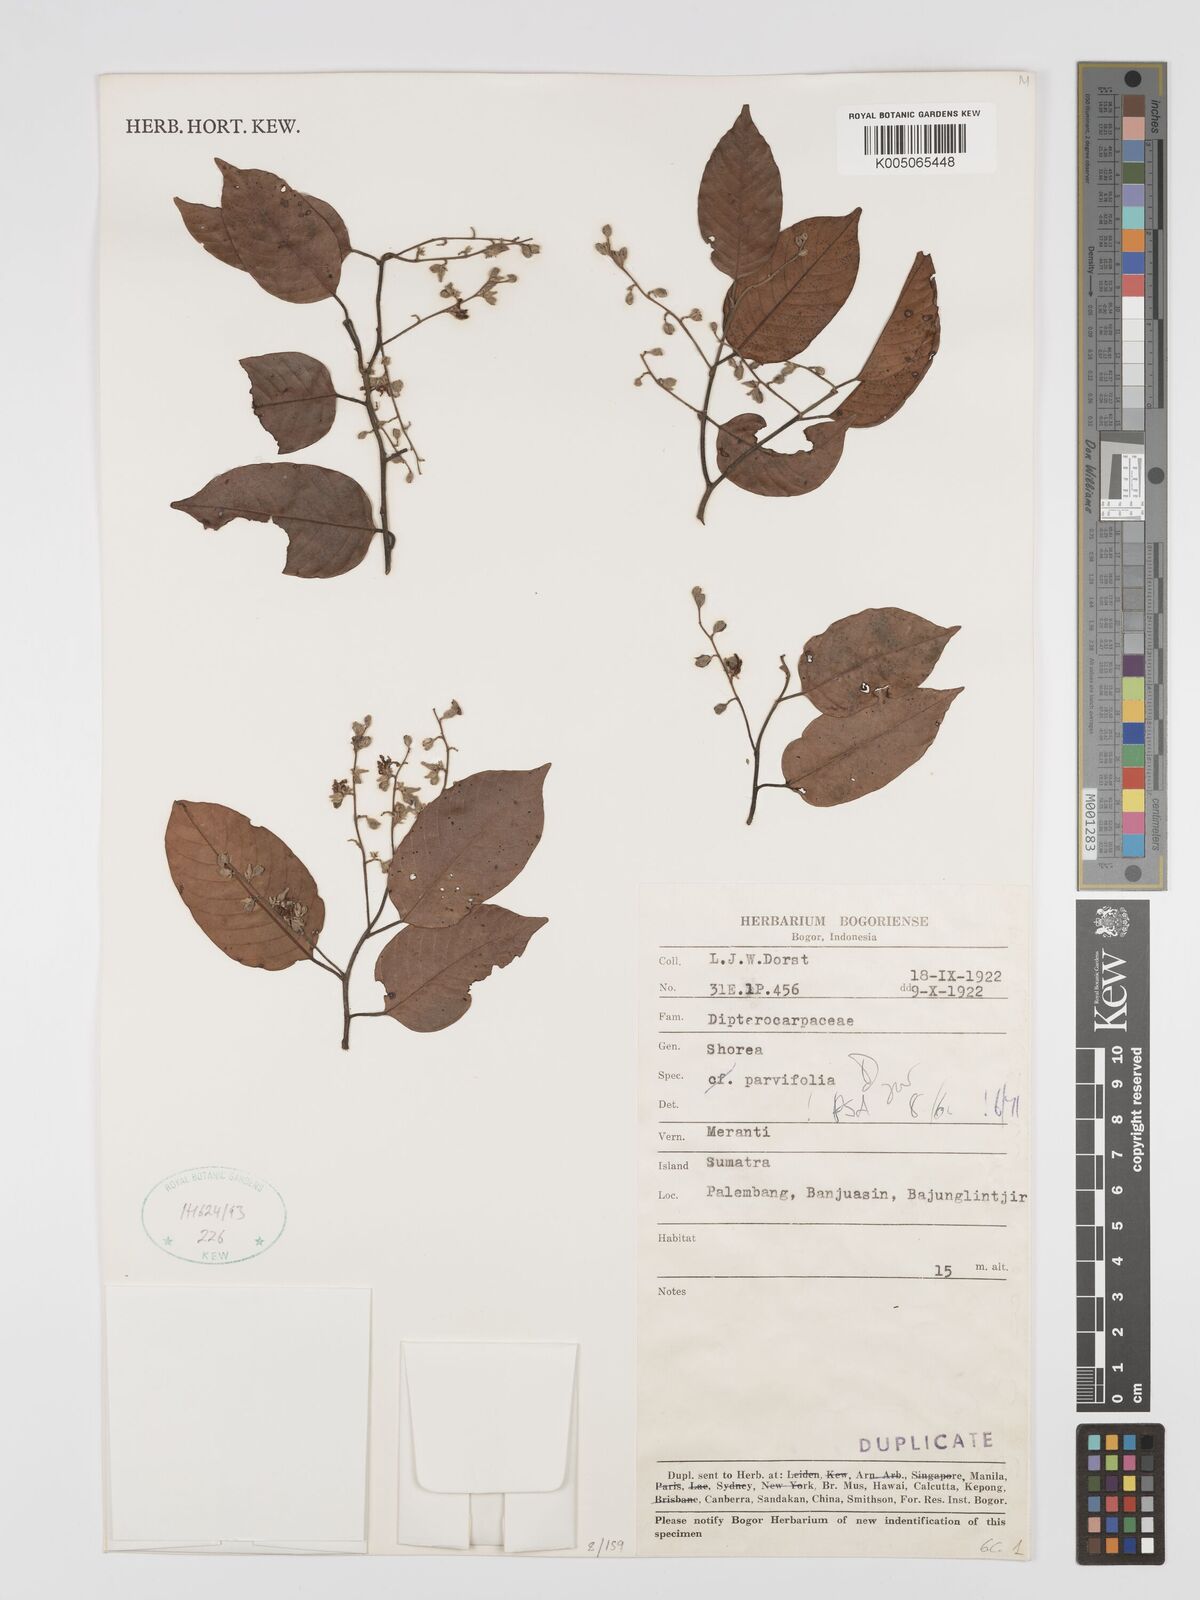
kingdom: Plantae
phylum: Tracheophyta
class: Magnoliopsida
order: Malvales
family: Dipterocarpaceae
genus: Shorea
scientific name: Shorea parvifolia
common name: Light red meranti
